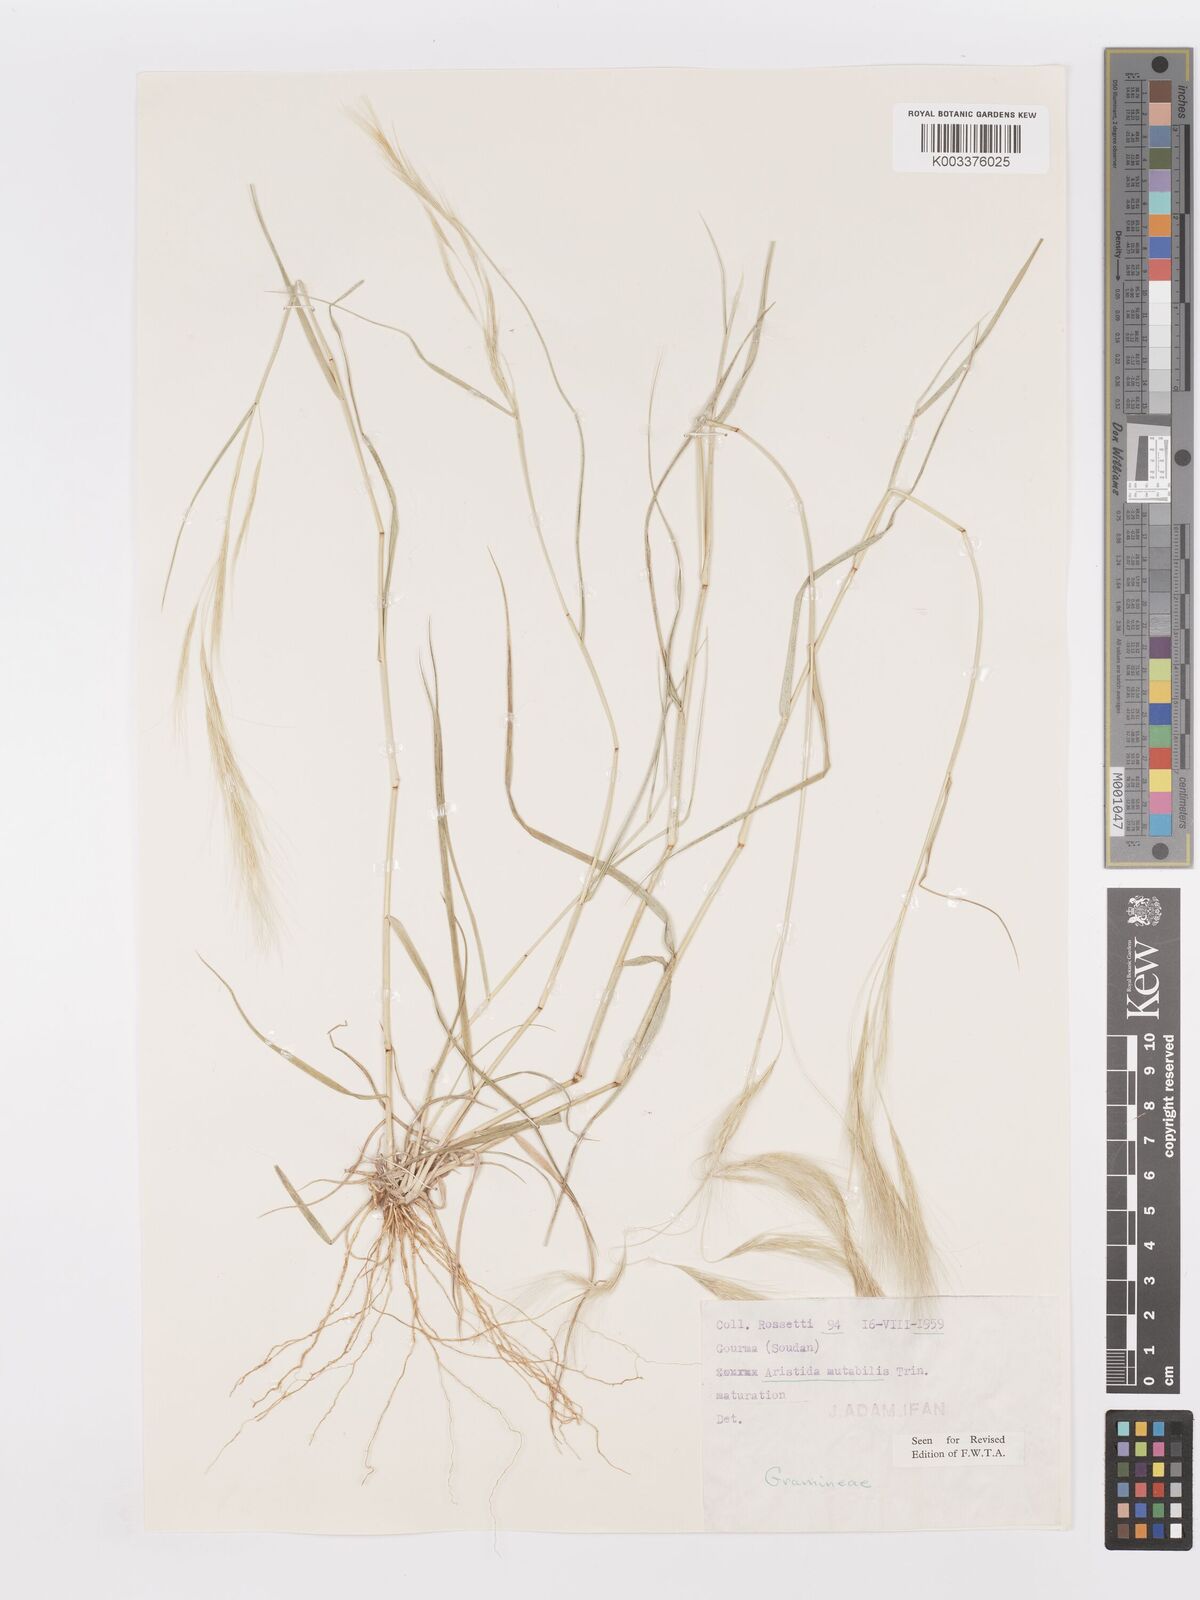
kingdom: Plantae
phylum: Tracheophyta
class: Liliopsida
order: Poales
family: Poaceae
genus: Aristida
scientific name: Aristida mutabilis
